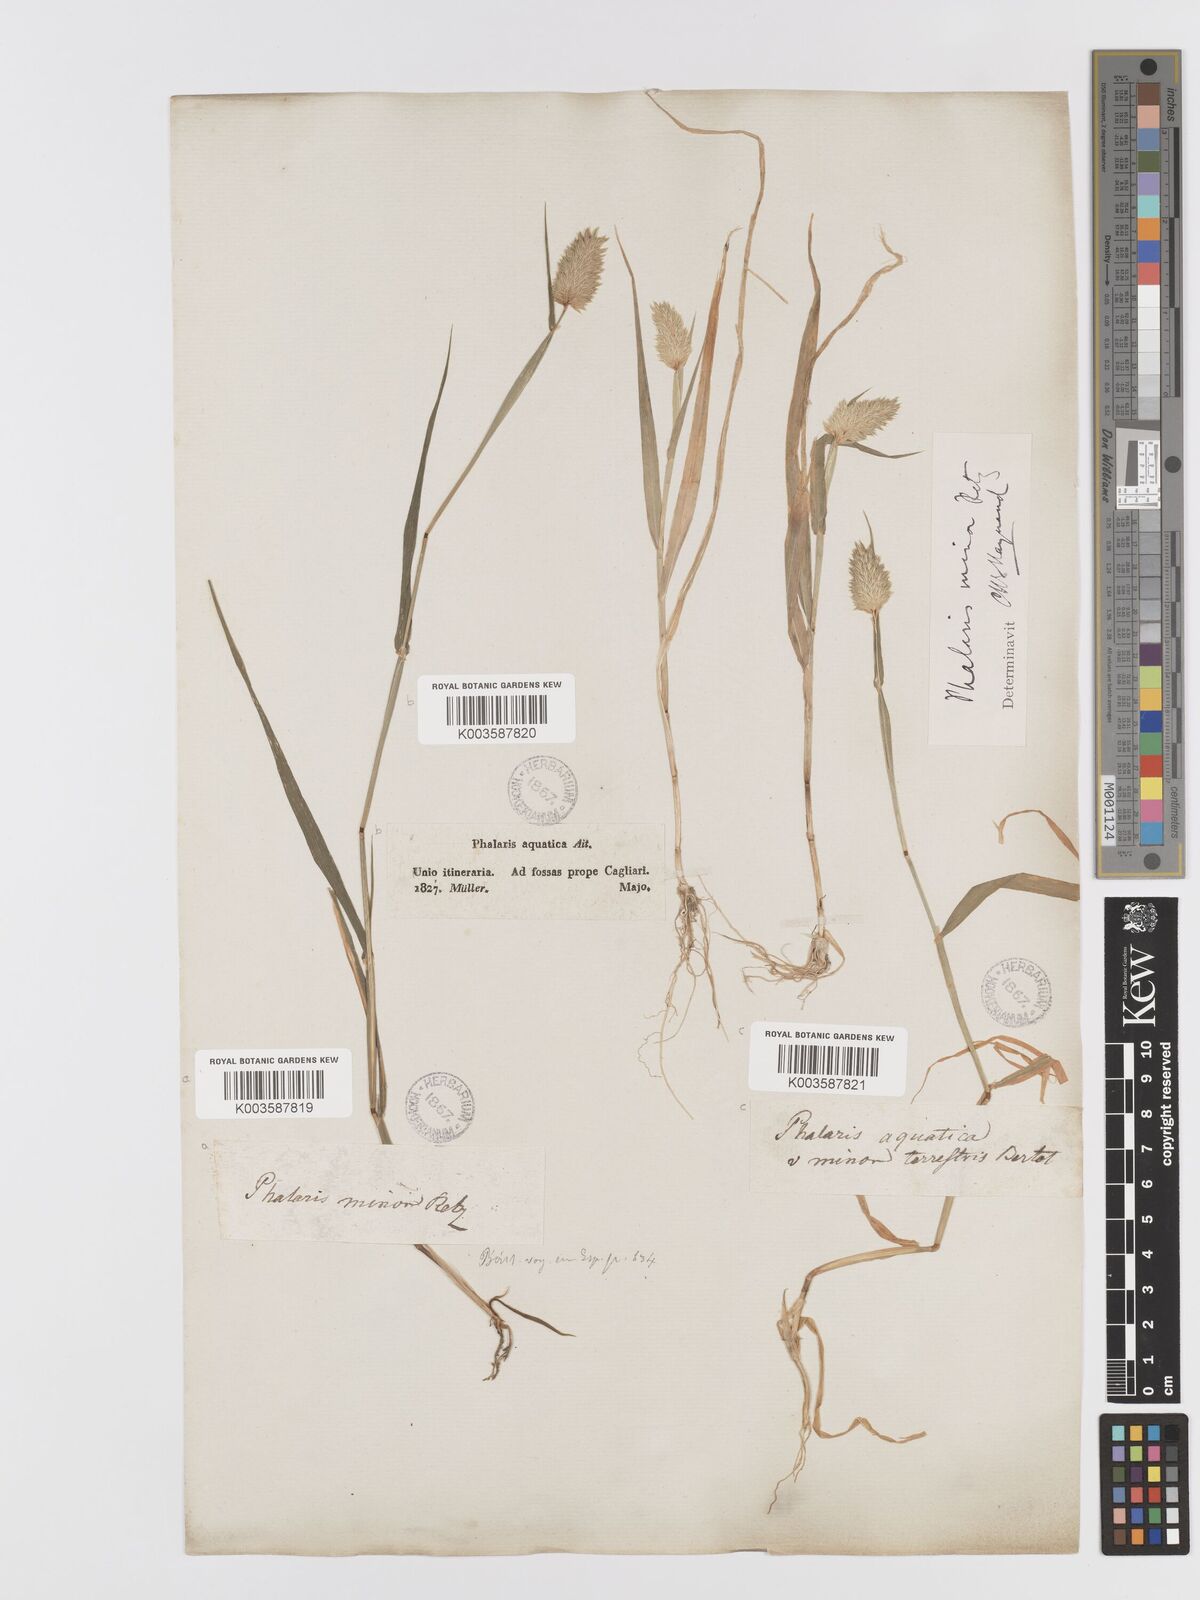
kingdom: Plantae
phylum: Tracheophyta
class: Liliopsida
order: Poales
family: Poaceae
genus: Phalaris
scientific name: Phalaris minor
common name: Littleseed canarygrass
